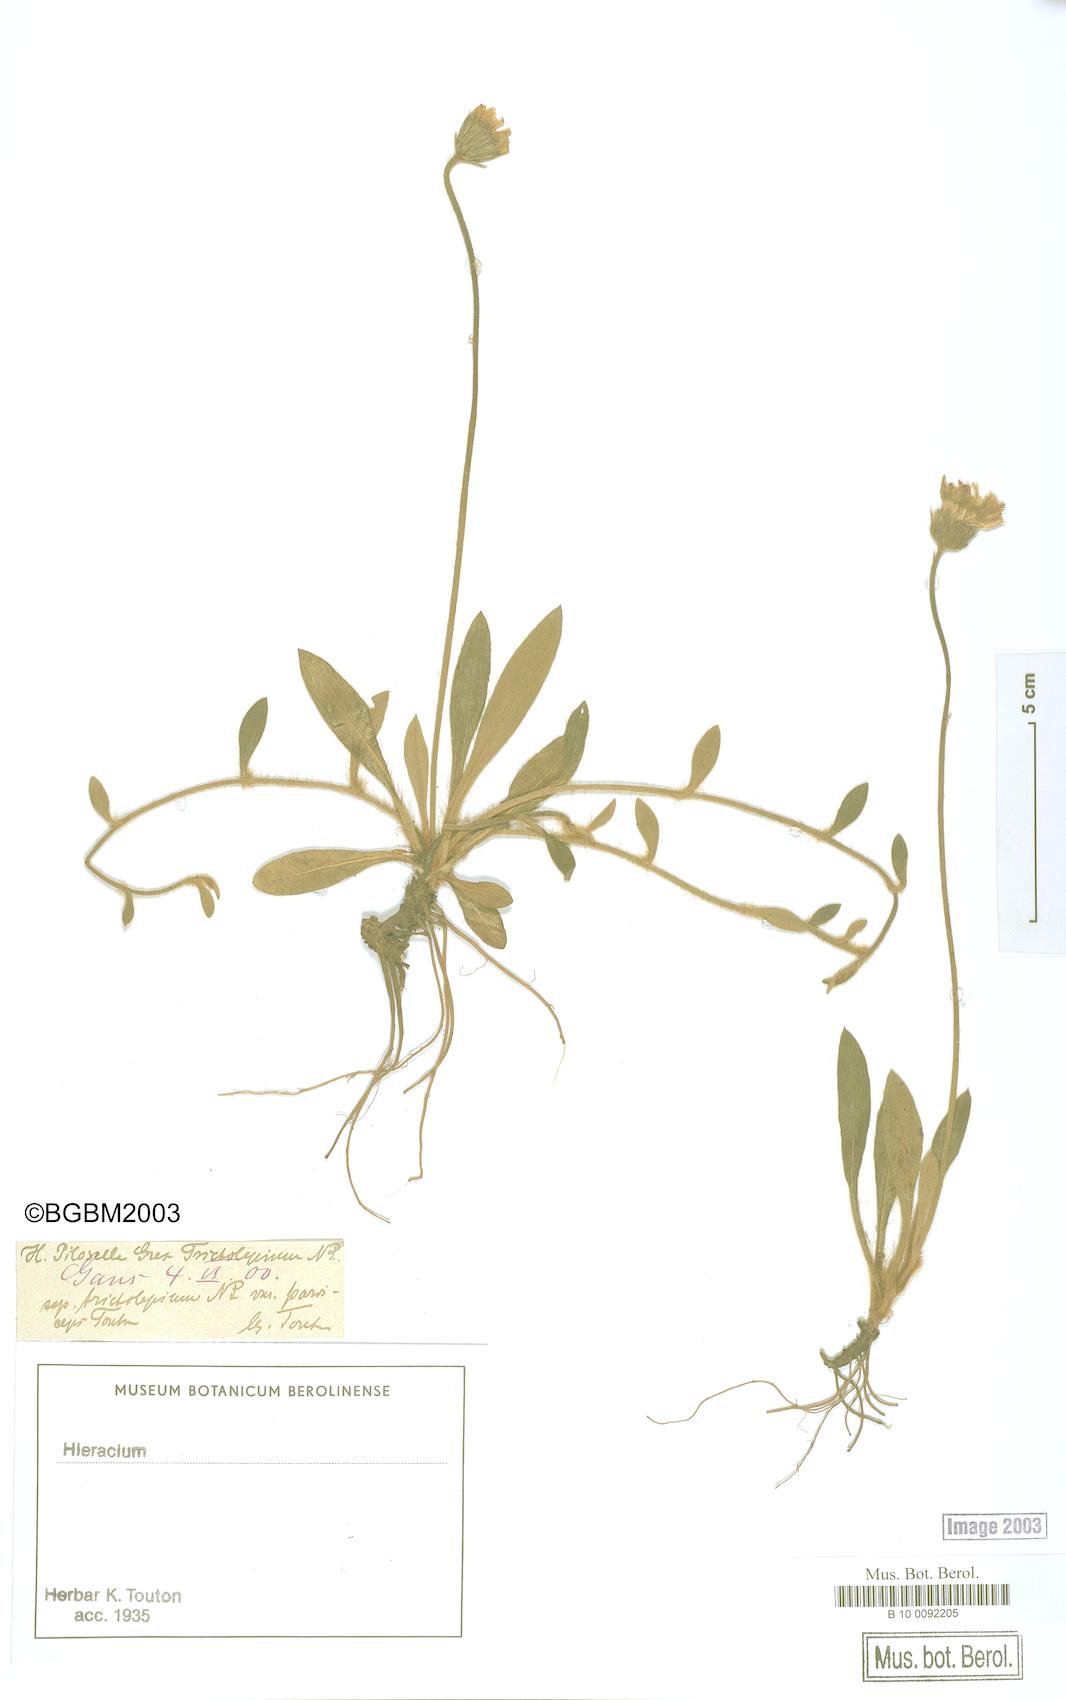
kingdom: Plantae
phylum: Tracheophyta
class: Magnoliopsida
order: Asterales
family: Asteraceae
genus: Pilosella
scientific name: Pilosella officinarum
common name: Mouse-ear hawkweed
